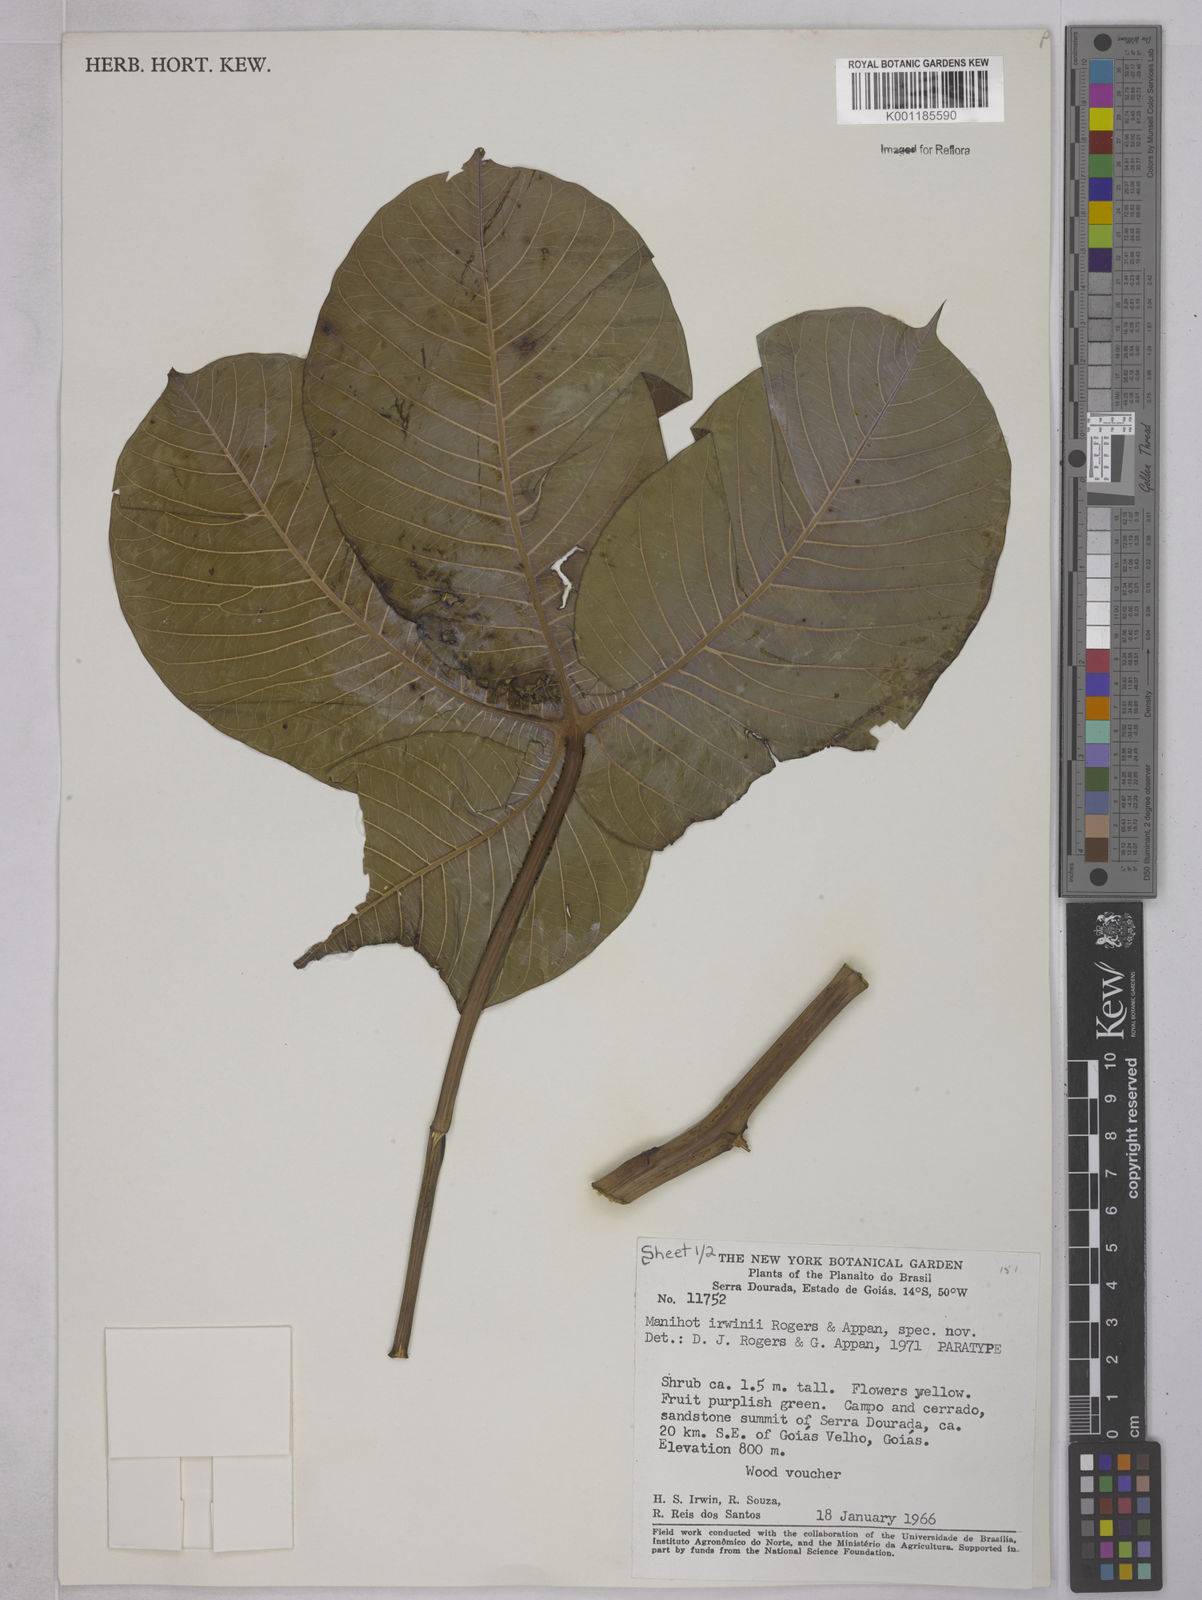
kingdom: Plantae
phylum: Tracheophyta
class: Magnoliopsida
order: Malpighiales
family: Euphorbiaceae
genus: Manihot
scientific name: Manihot irwinii
